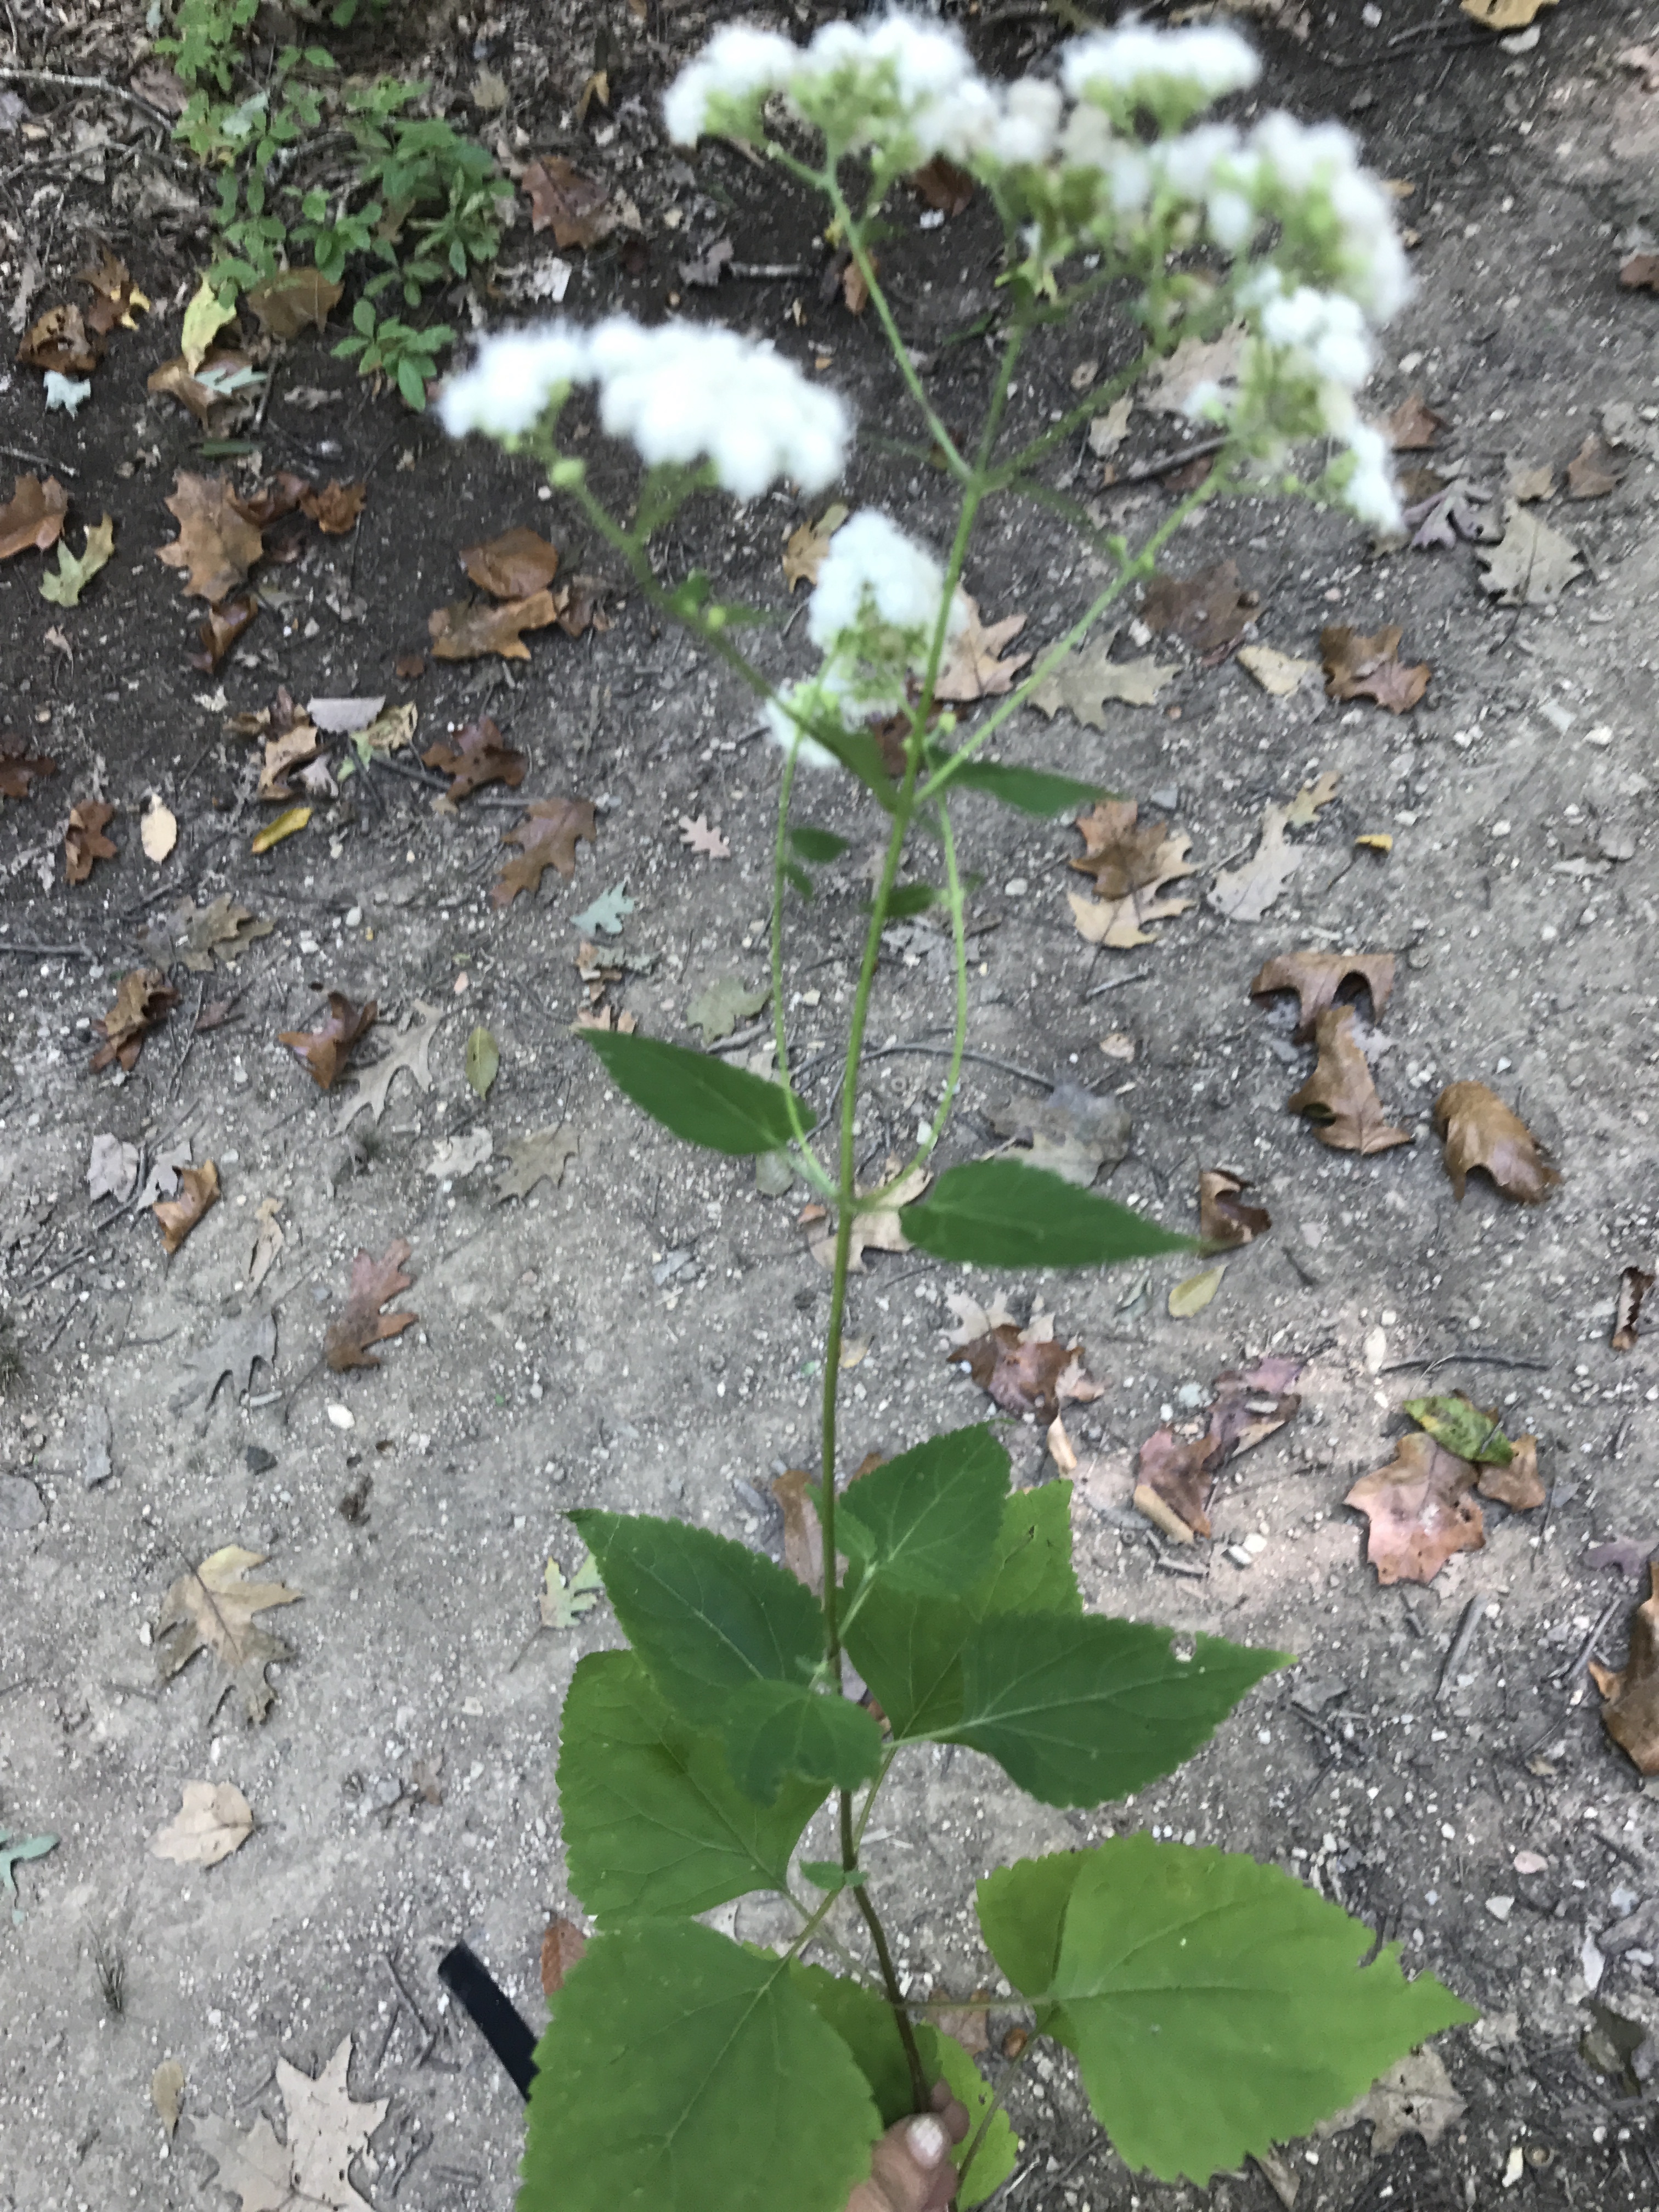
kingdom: Plantae
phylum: Tracheophyta
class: Magnoliopsida
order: Asterales
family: Asteraceae
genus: Ageratina
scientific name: Ageratina altissima
